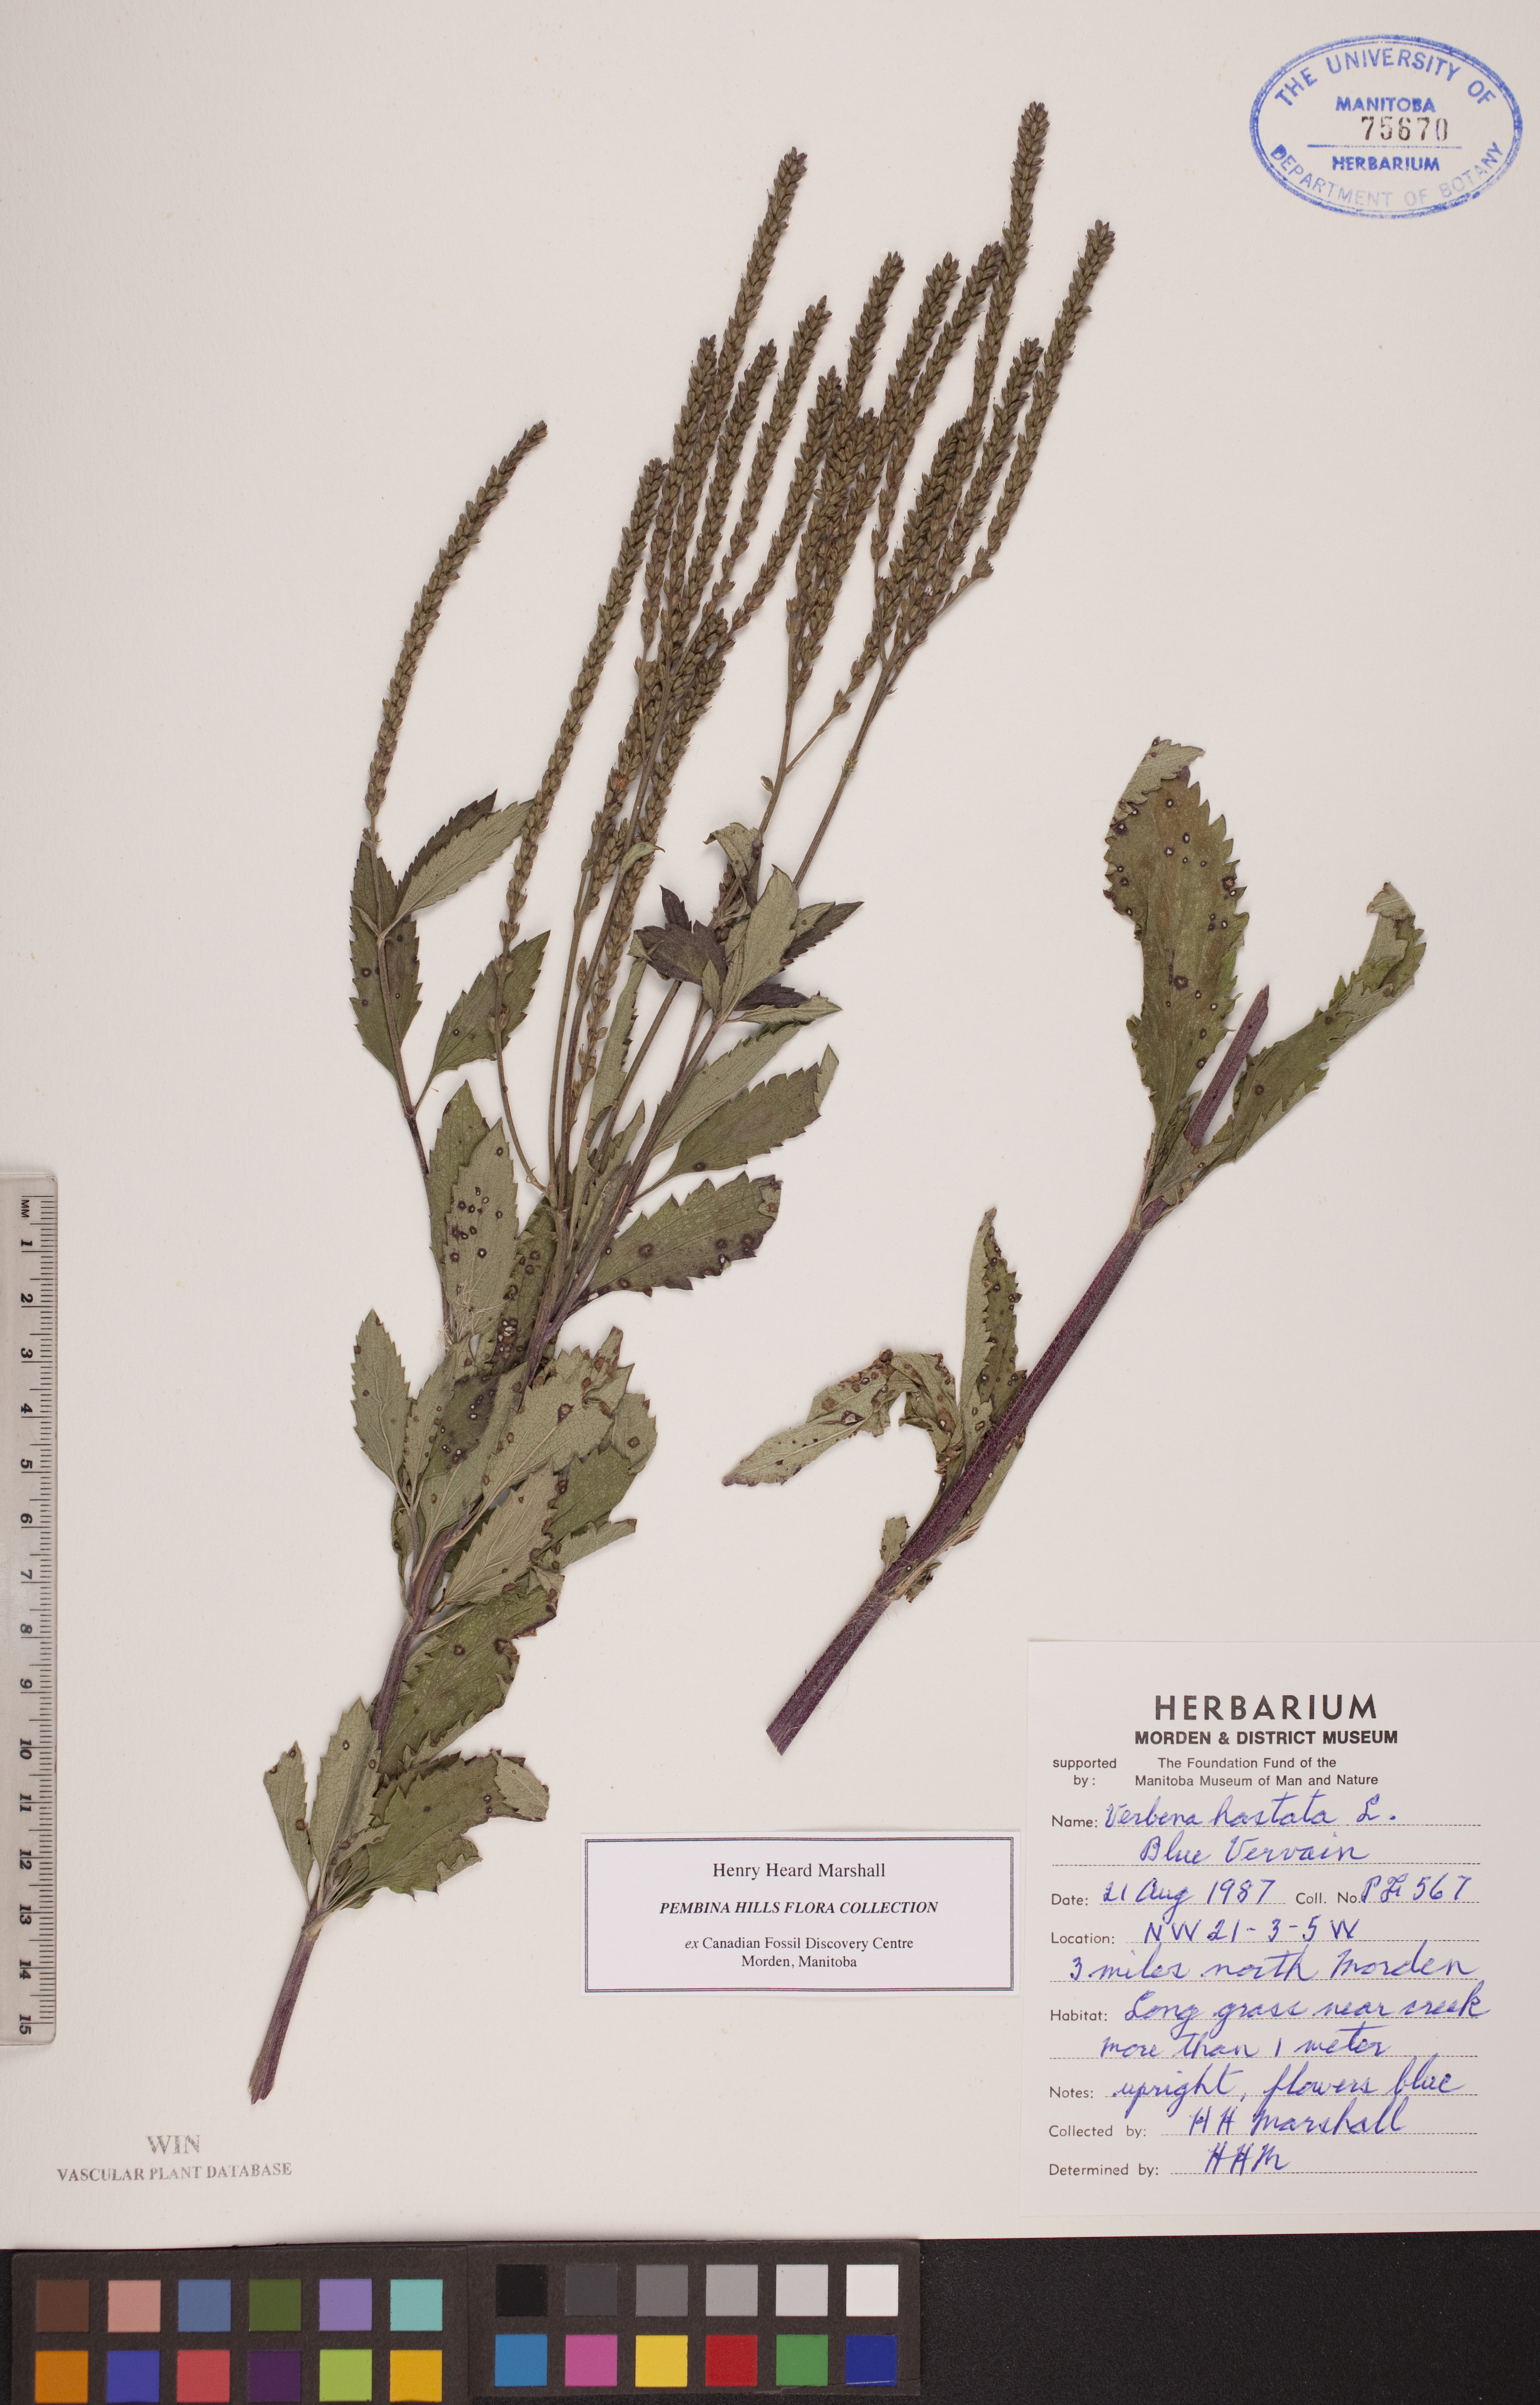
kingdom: Plantae
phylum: Tracheophyta
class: Magnoliopsida
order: Lamiales
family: Verbenaceae
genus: Verbena
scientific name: Verbena hastata
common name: American blue vervain
